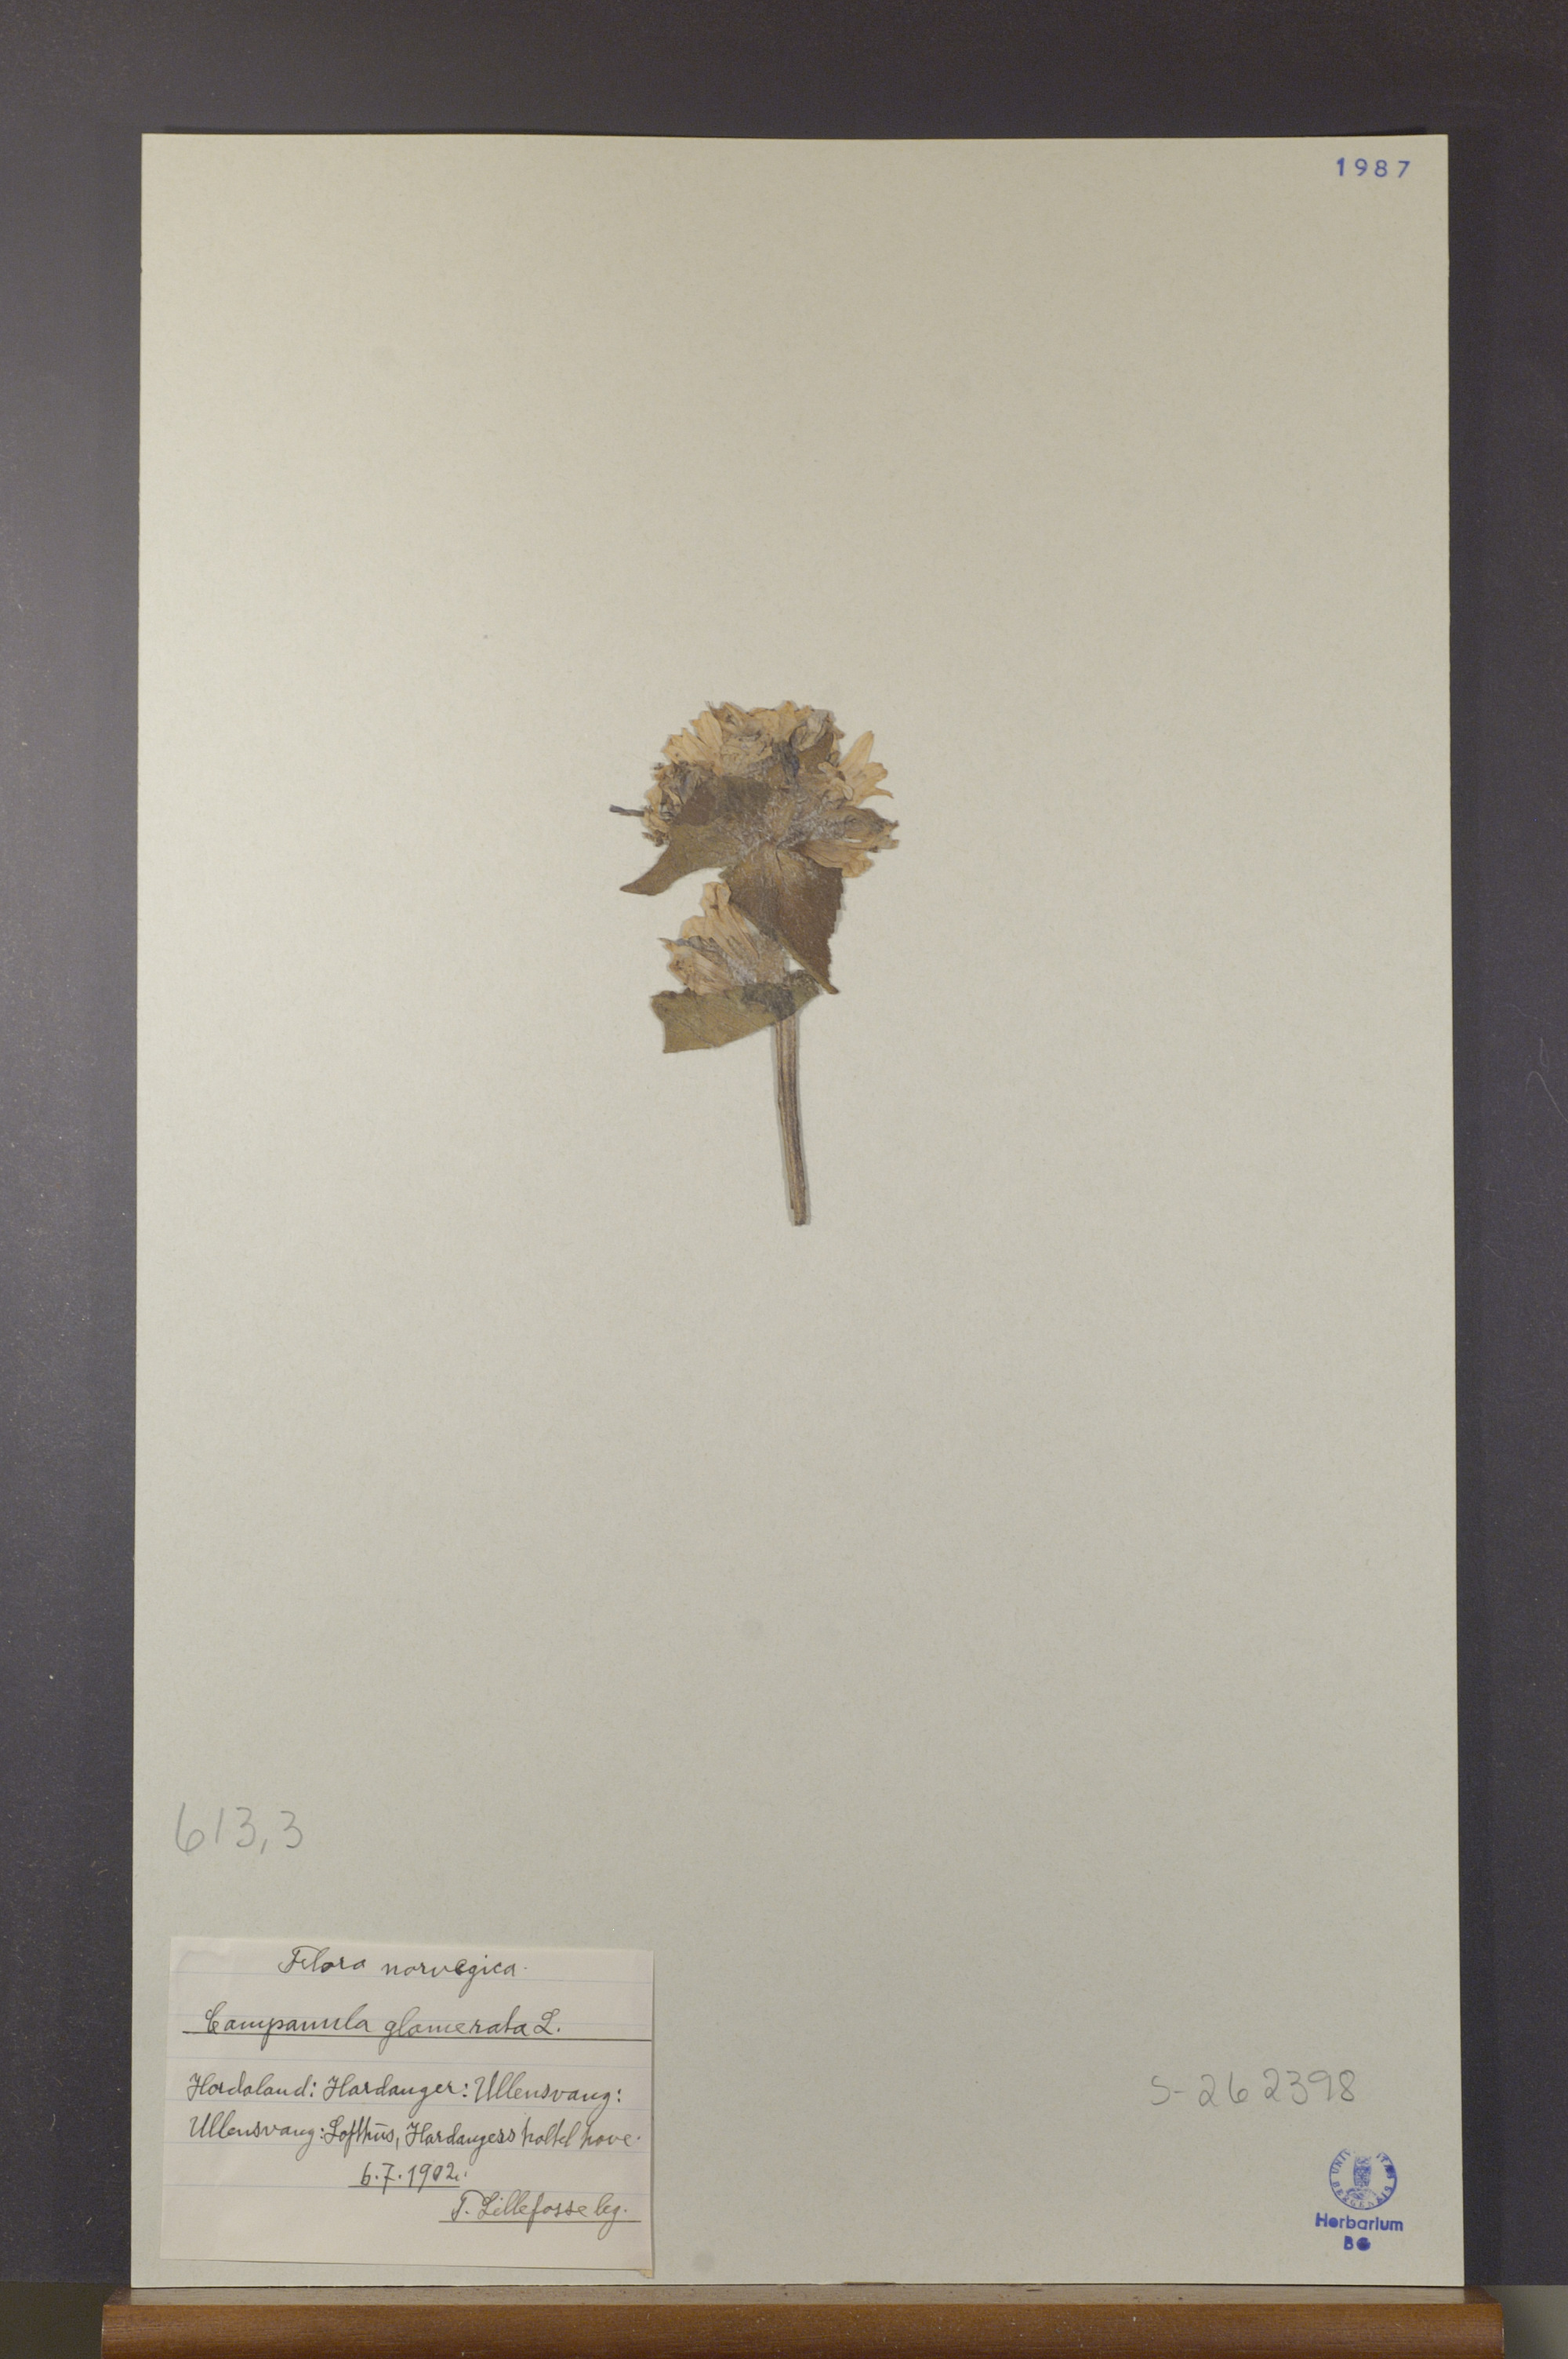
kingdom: Plantae
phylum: Tracheophyta
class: Magnoliopsida
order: Asterales
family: Campanulaceae
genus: Campanula
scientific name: Campanula glomerata
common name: Clustered bellflower
